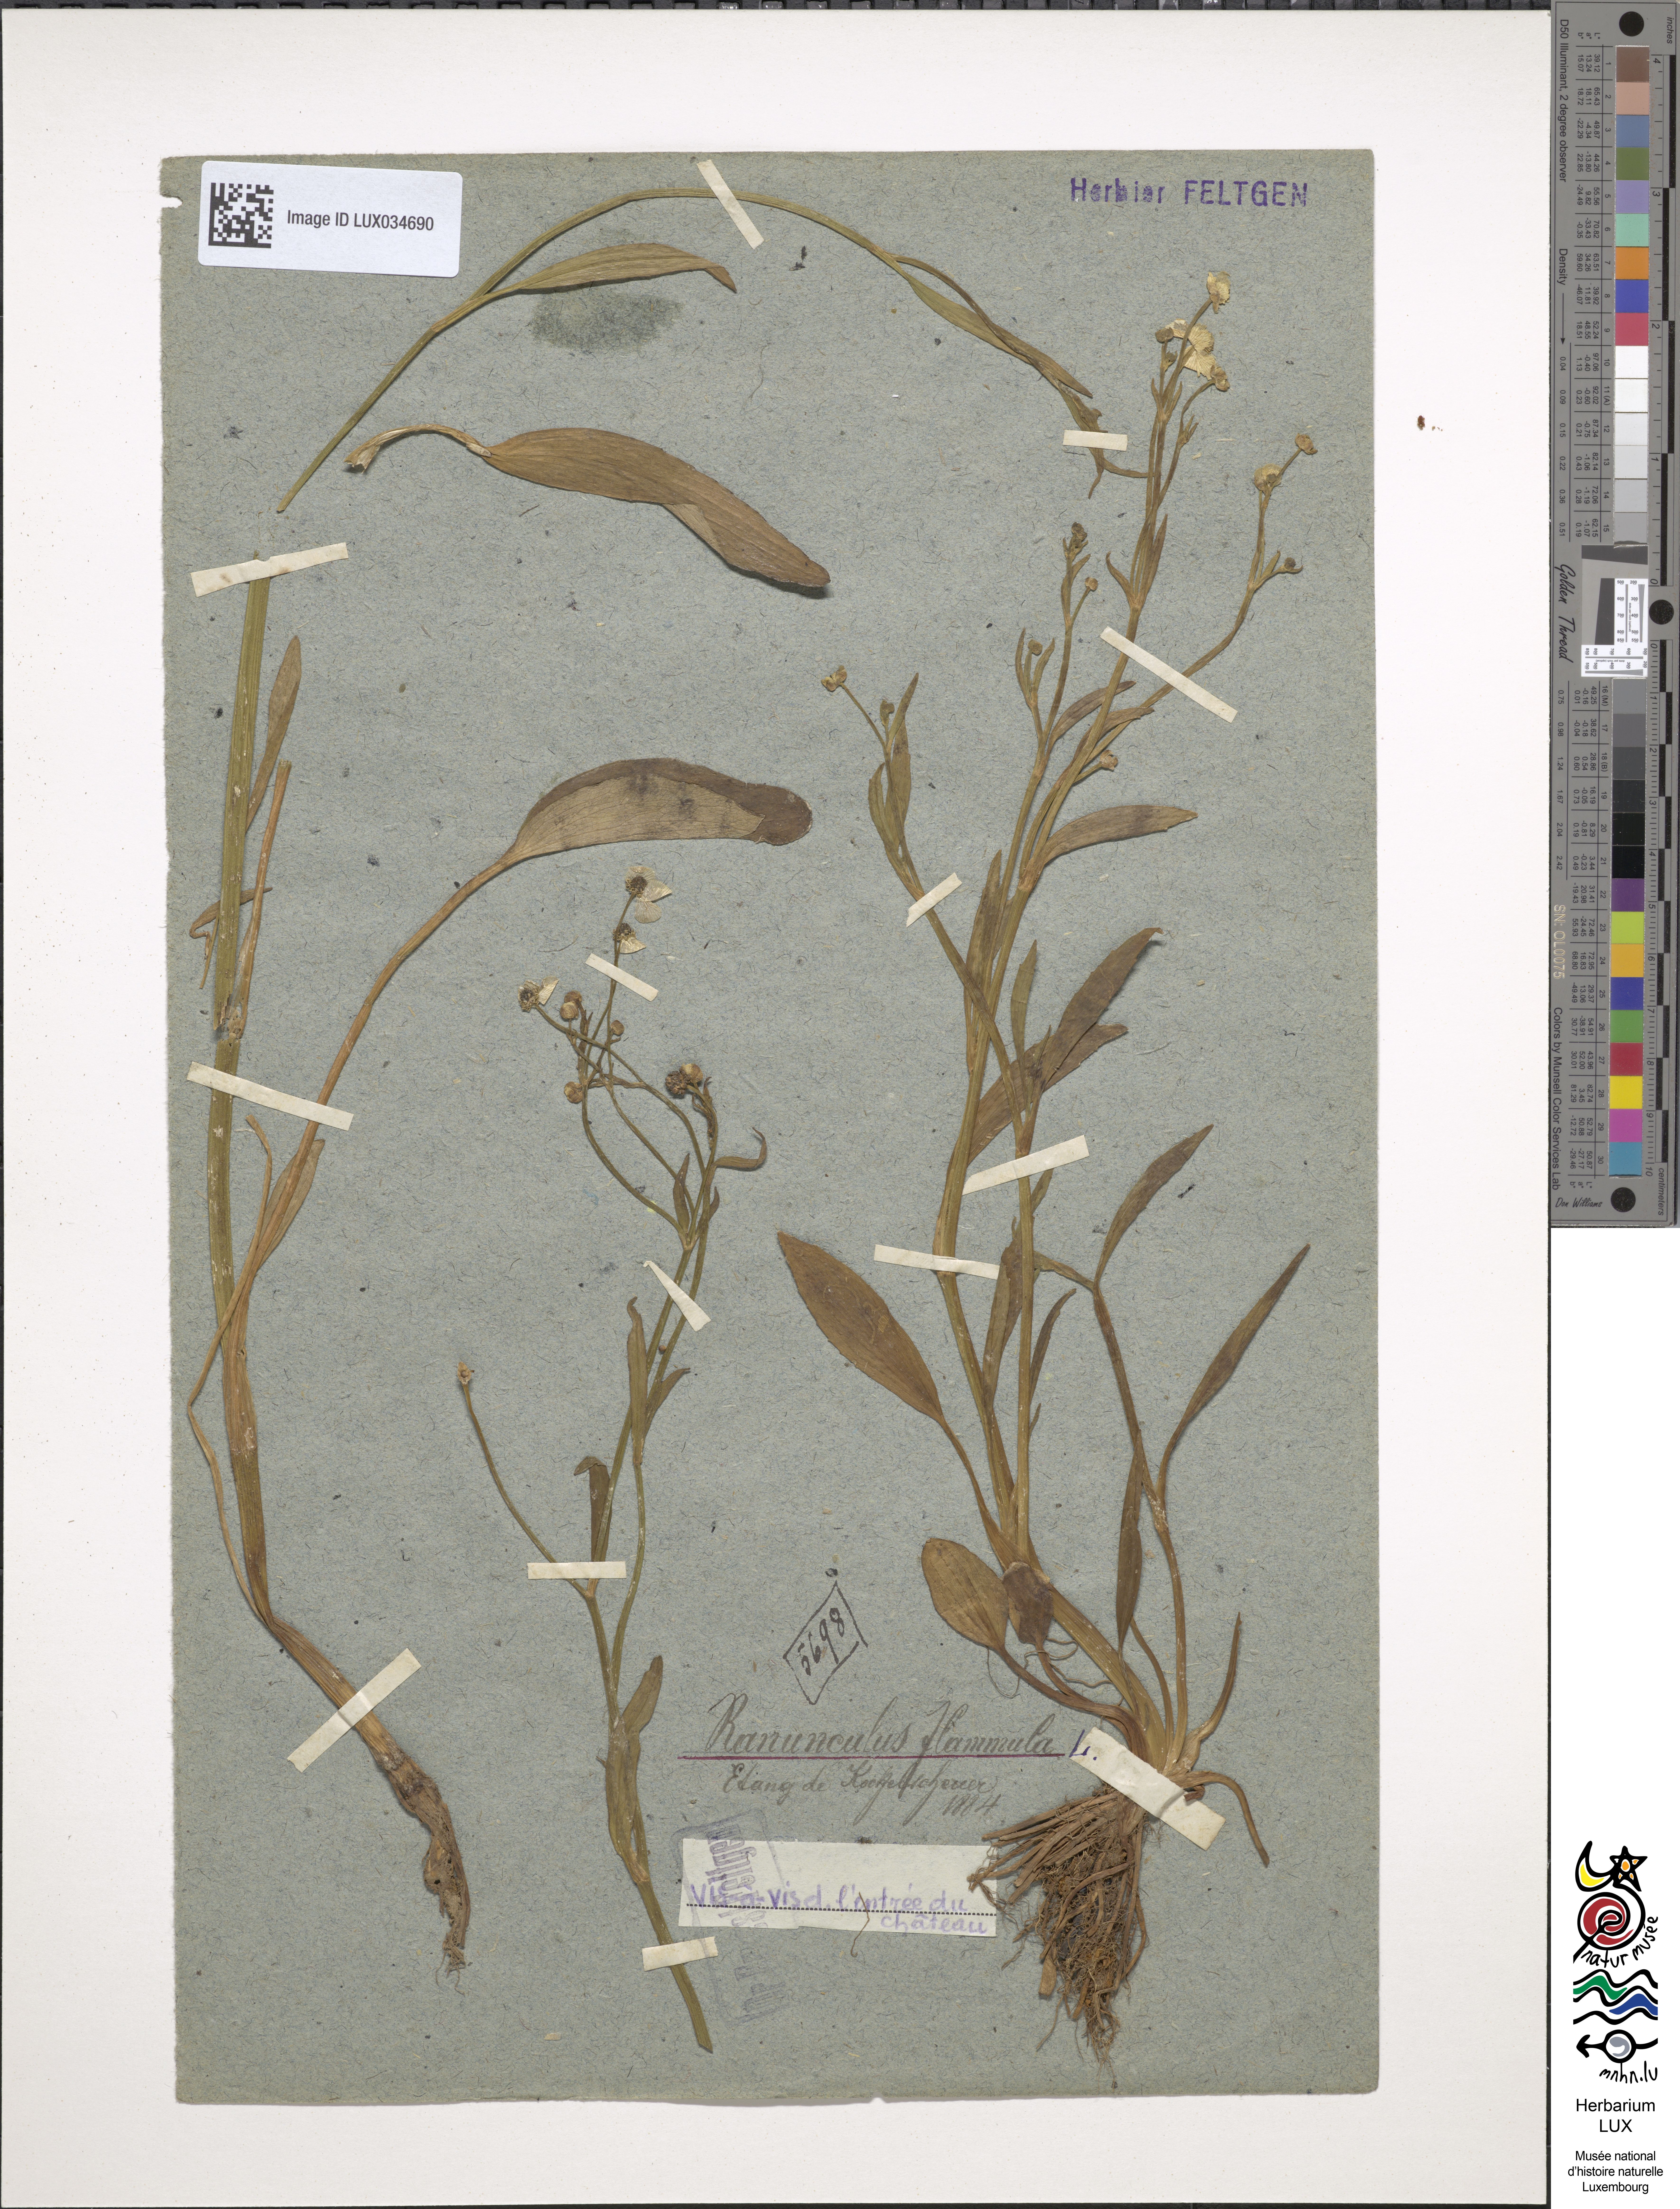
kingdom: Plantae
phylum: Tracheophyta
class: Magnoliopsida
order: Ranunculales
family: Ranunculaceae
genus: Ranunculus
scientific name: Ranunculus flammula
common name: Lesser spearwort
